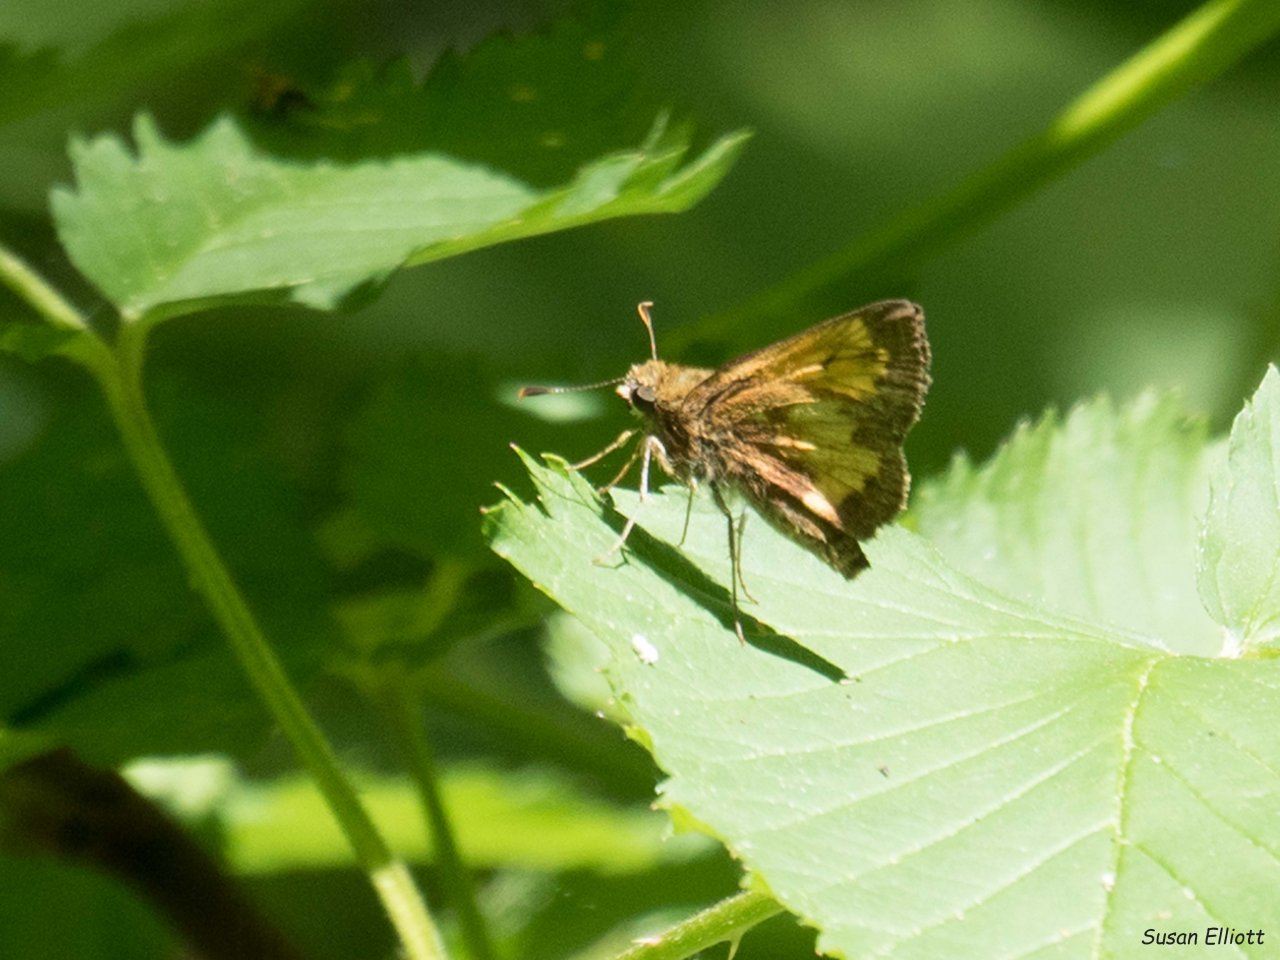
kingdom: Animalia
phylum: Arthropoda
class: Insecta
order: Lepidoptera
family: Hesperiidae
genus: Lon
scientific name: Lon hobomok
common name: Hobomok Skipper
